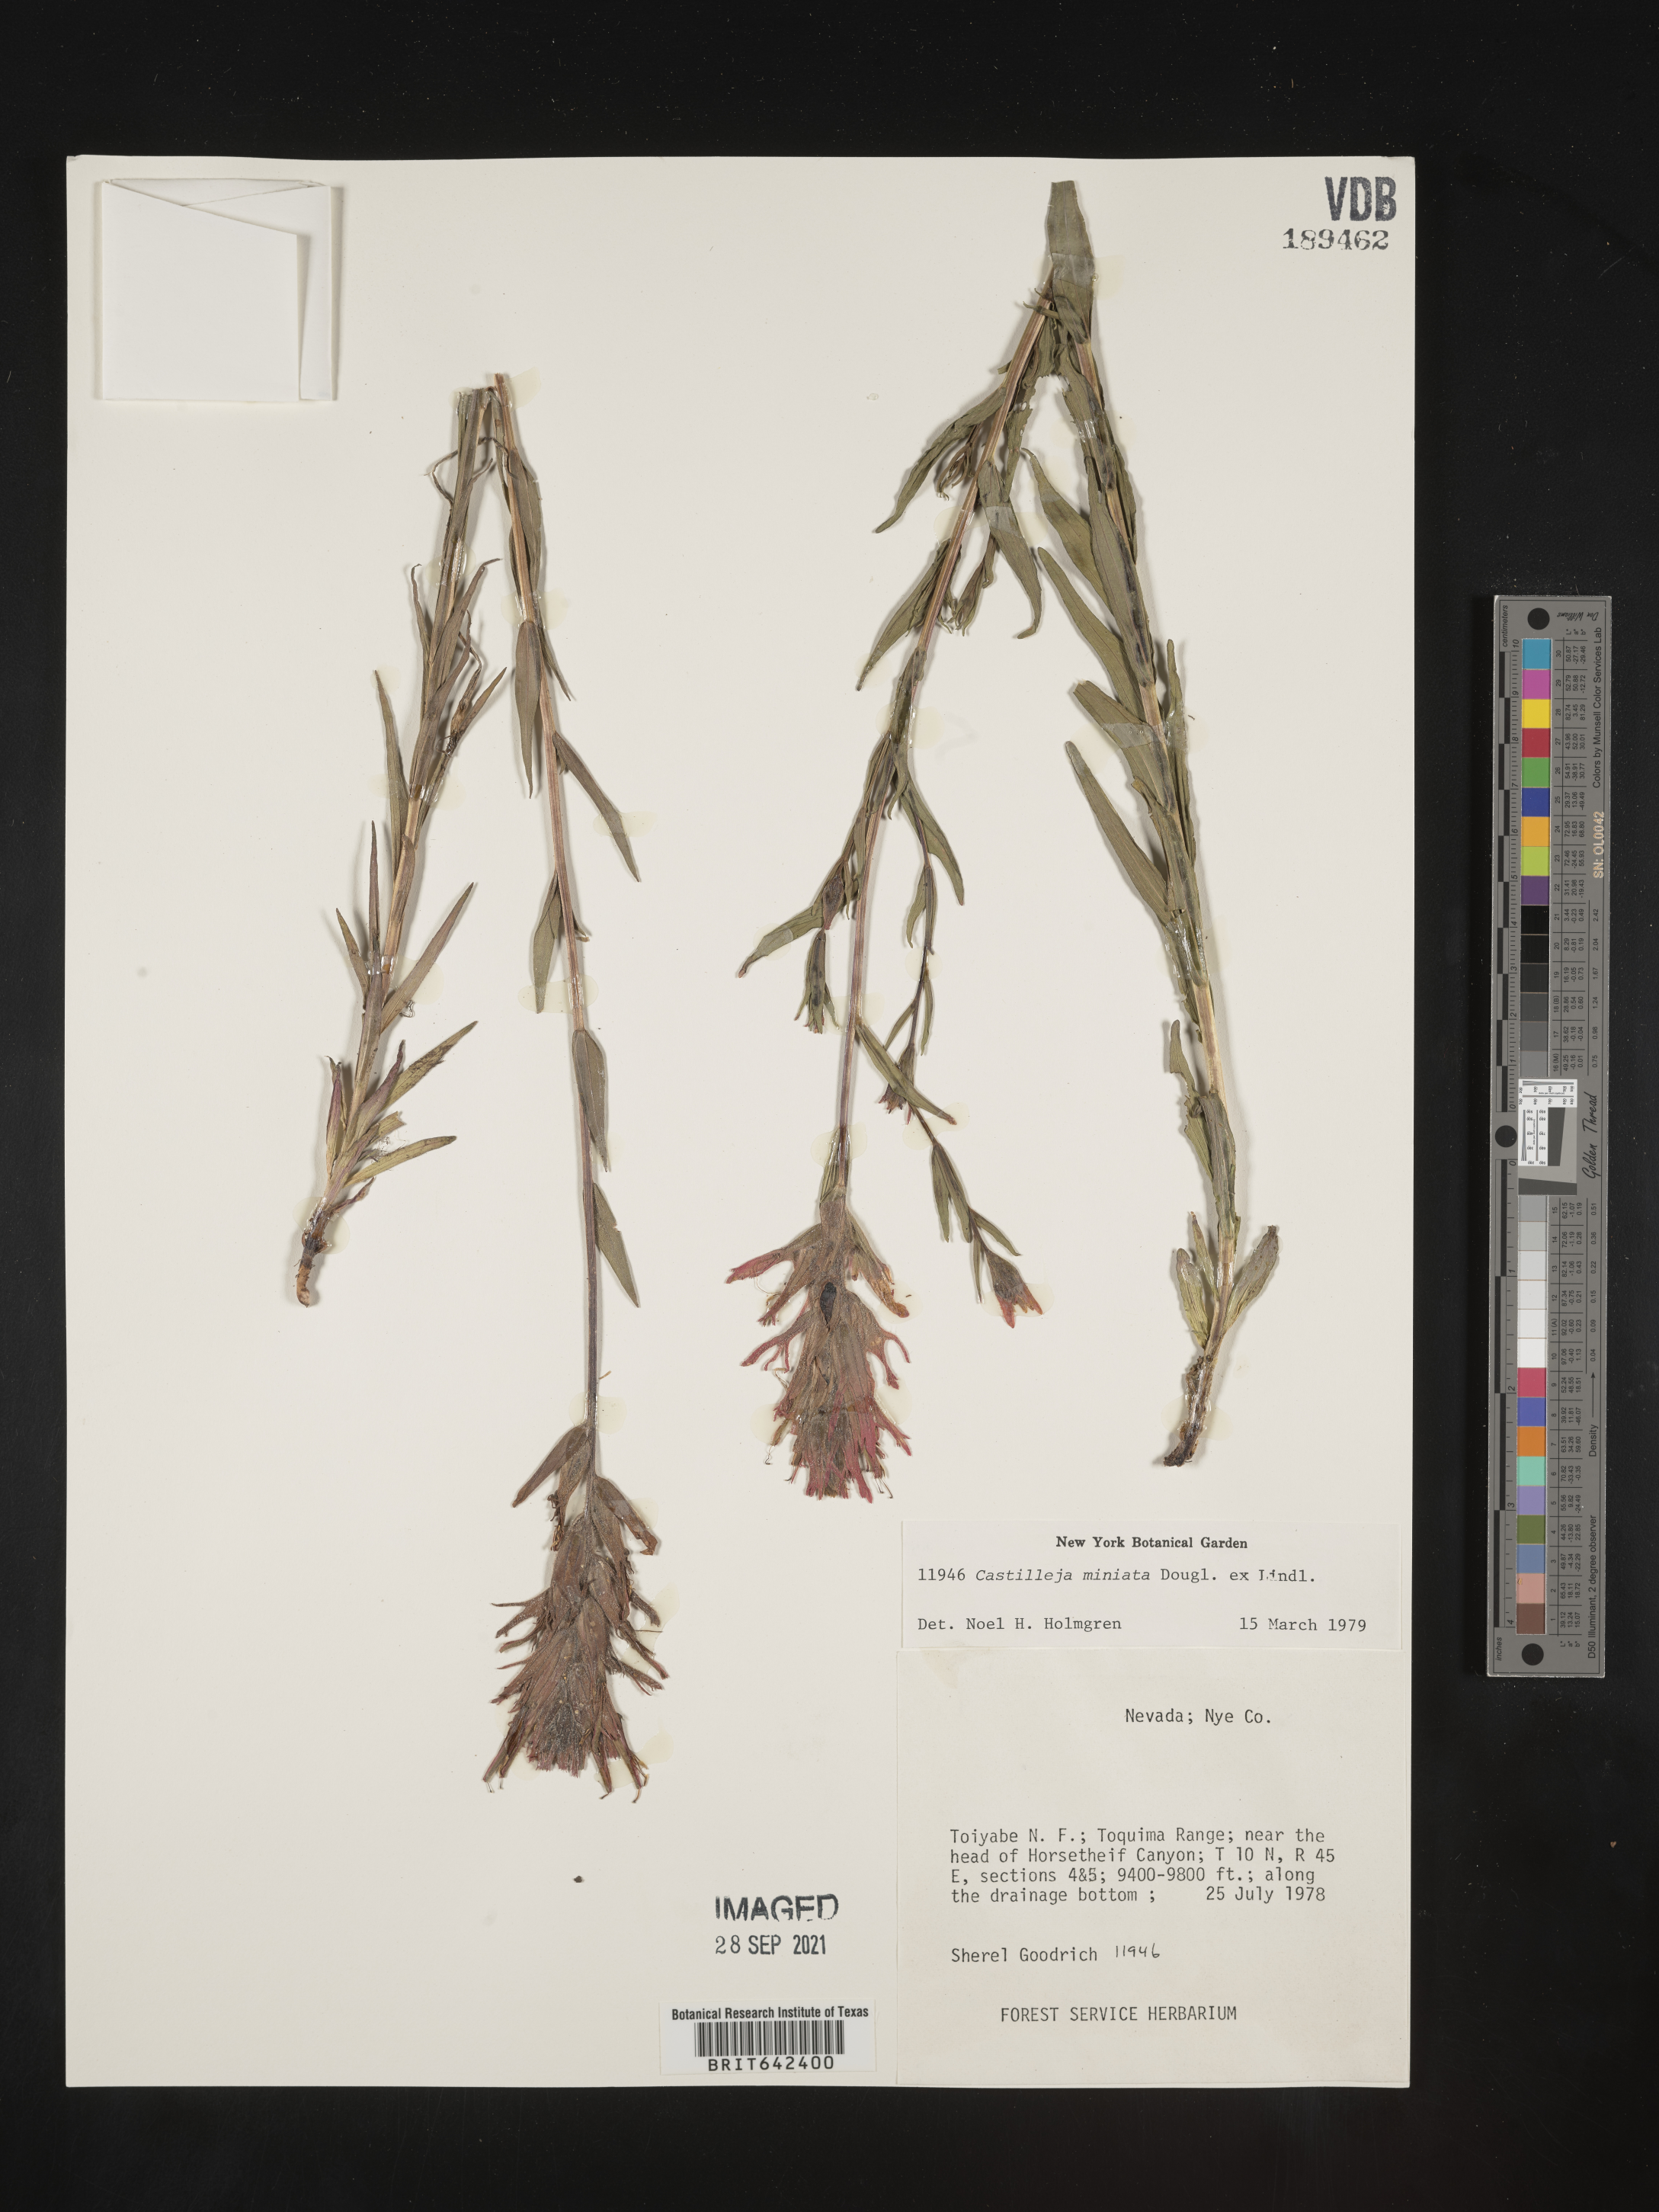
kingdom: Plantae
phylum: Tracheophyta
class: Magnoliopsida
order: Lamiales
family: Orobanchaceae
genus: Castilleja
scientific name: Castilleja
